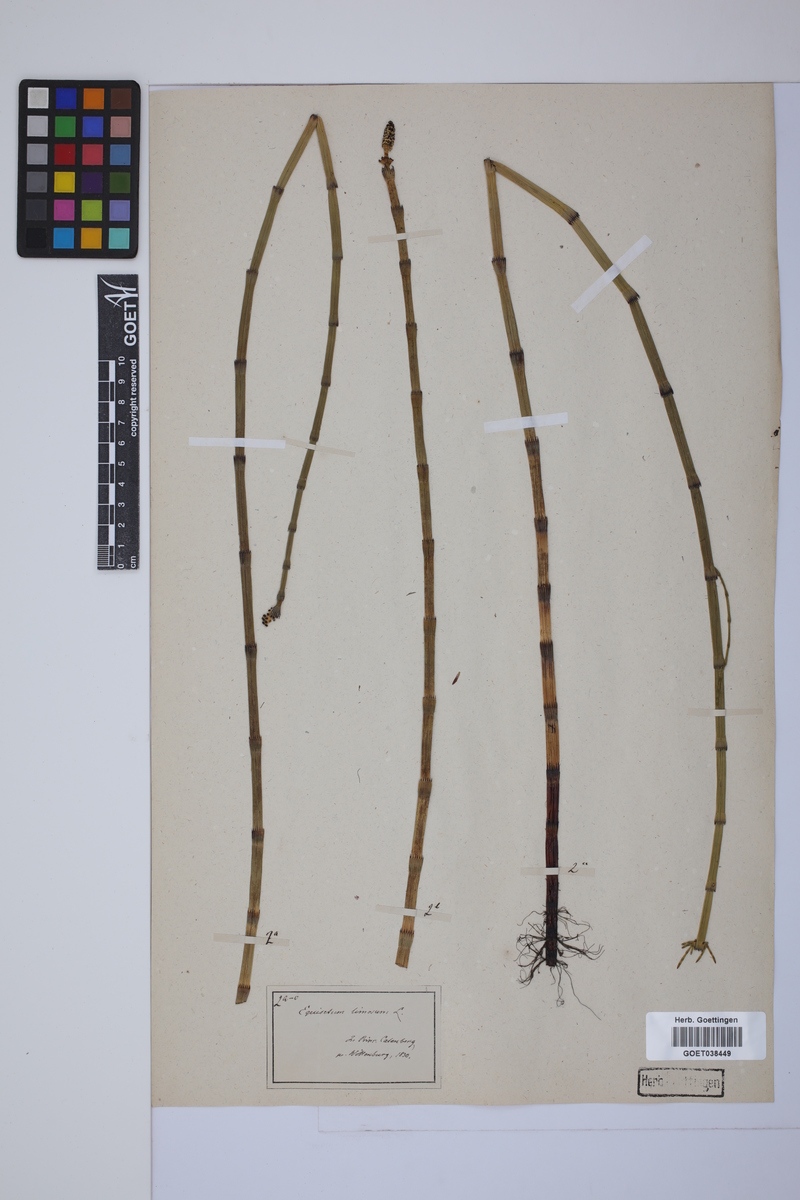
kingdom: Plantae
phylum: Tracheophyta
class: Polypodiopsida
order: Equisetales
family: Equisetaceae
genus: Equisetum
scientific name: Equisetum fluviatile
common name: Water horsetail
